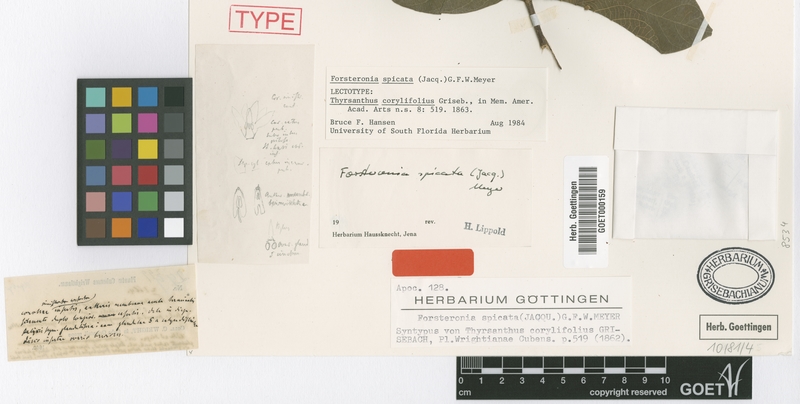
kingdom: Plantae
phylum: Tracheophyta
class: Magnoliopsida
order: Gentianales
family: Apocynaceae
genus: Forsteronia
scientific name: Forsteronia spicata
